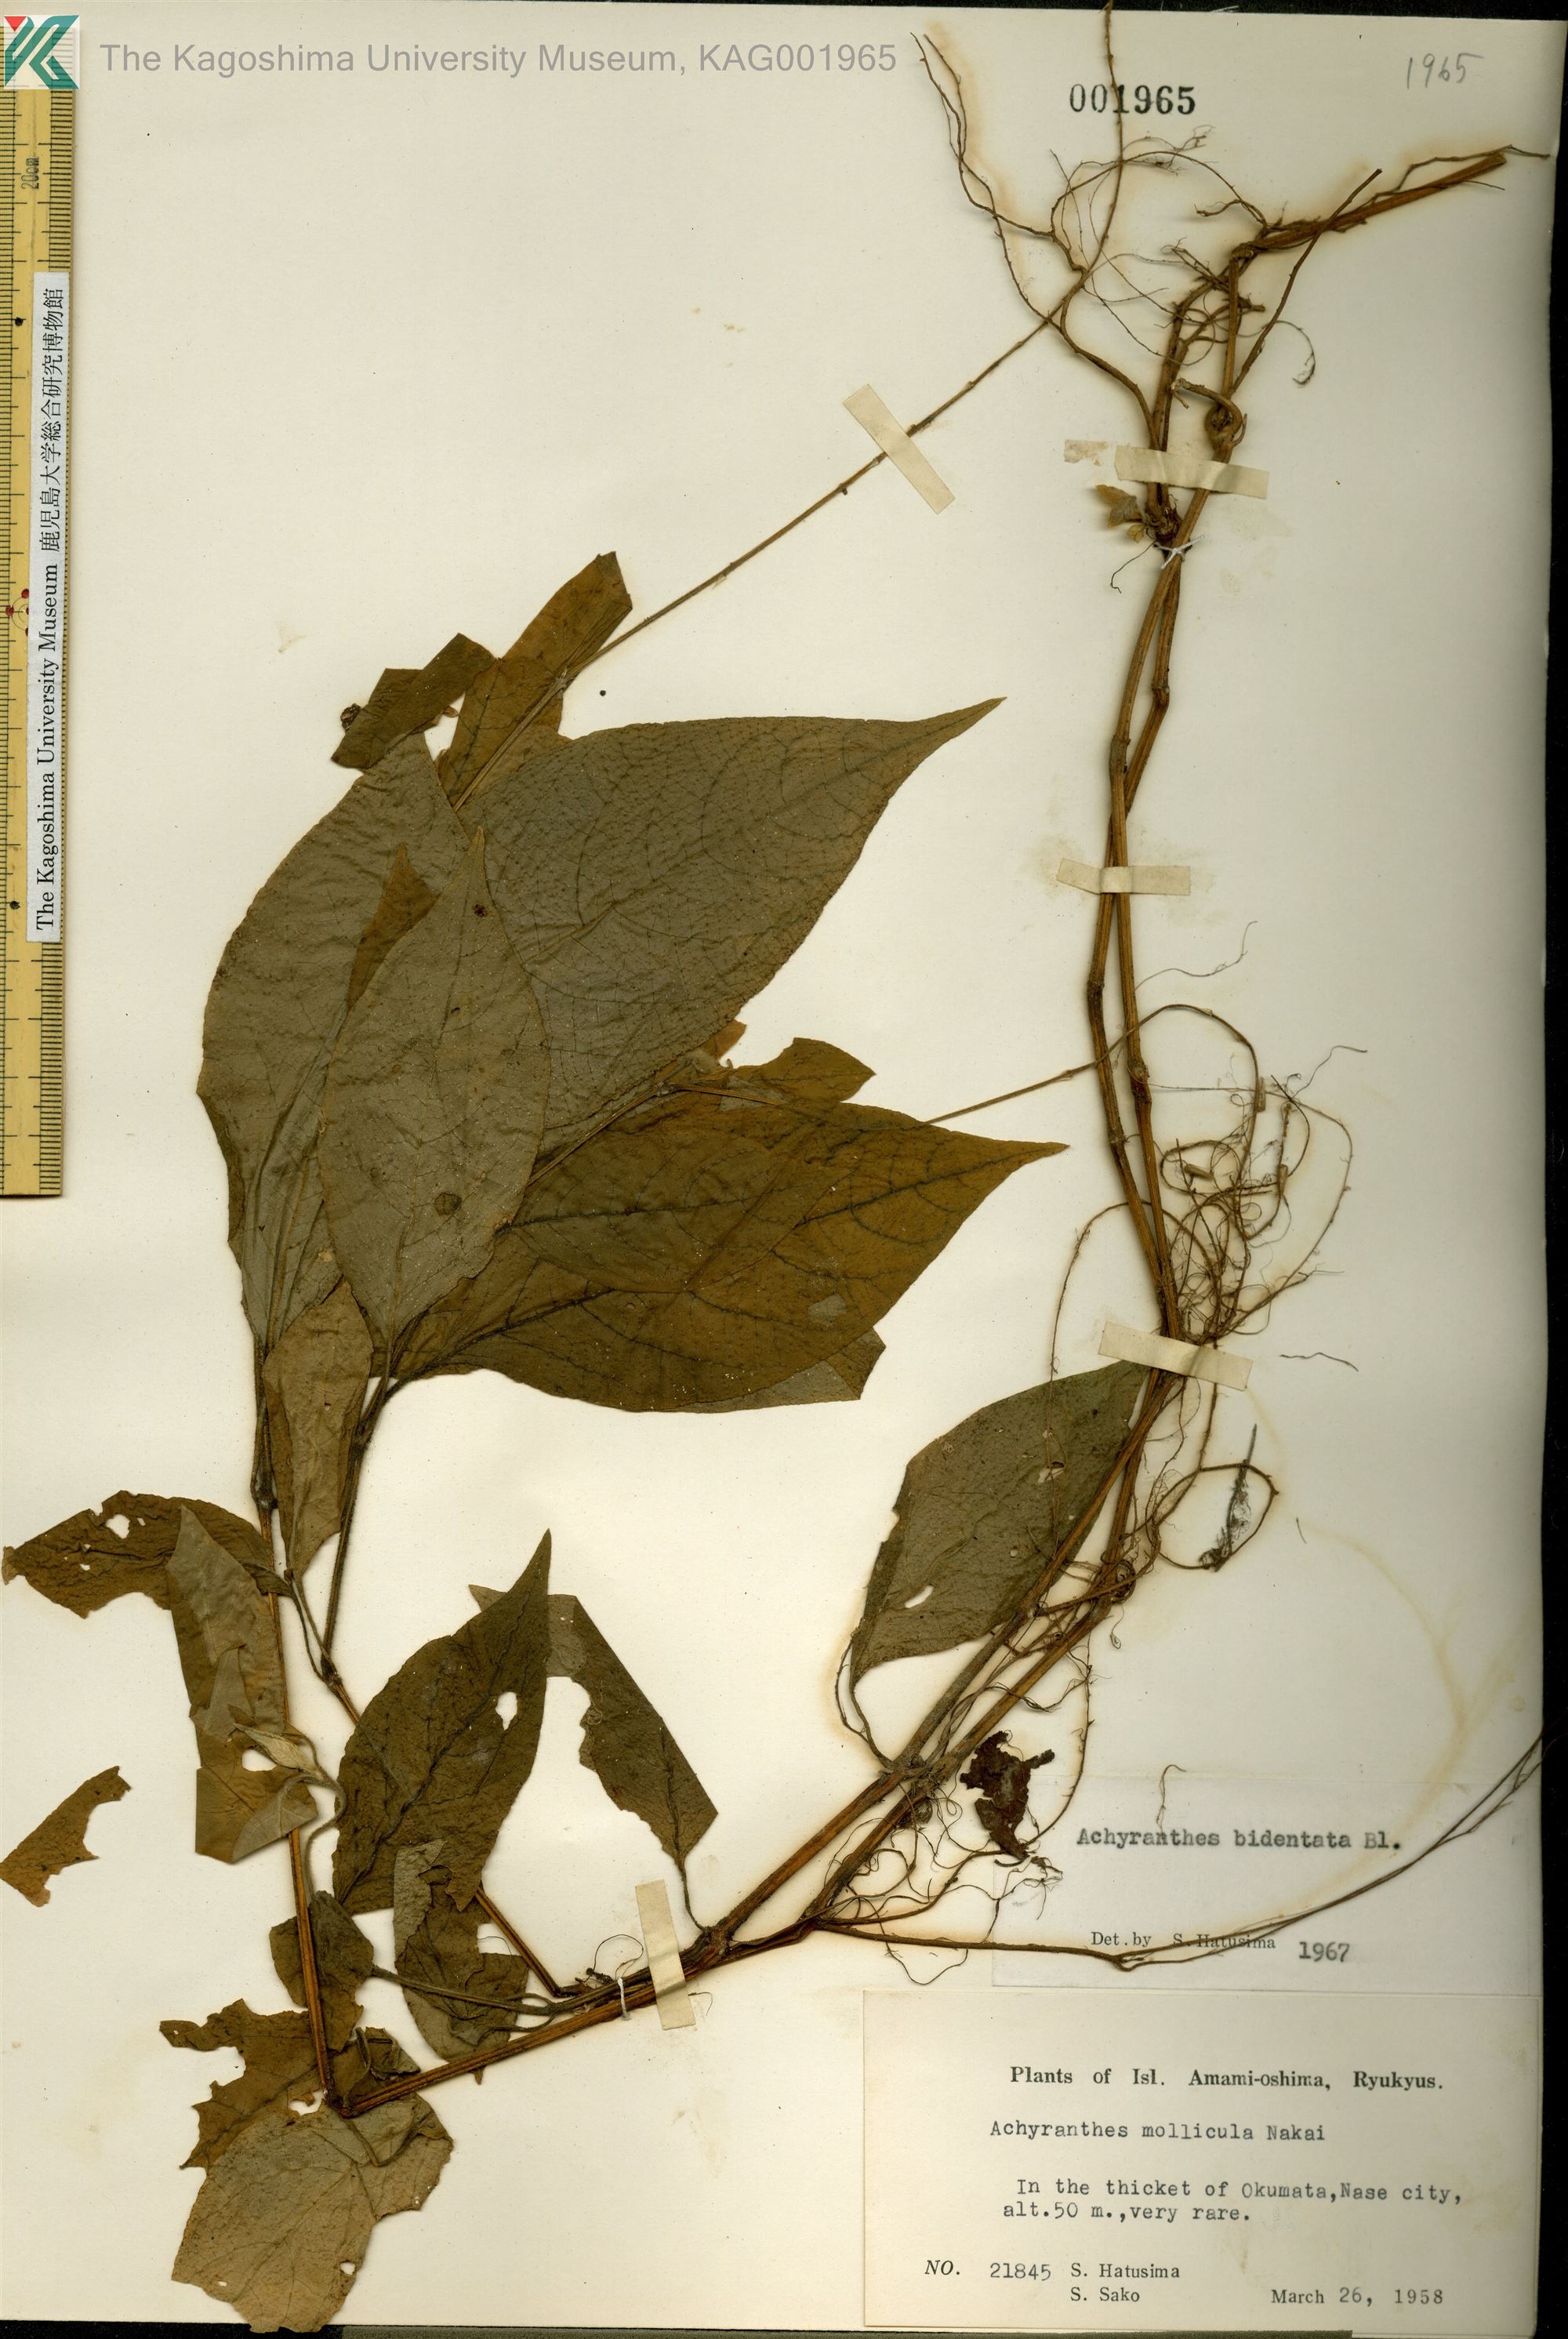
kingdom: Plantae
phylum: Tracheophyta
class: Magnoliopsida
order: Caryophyllales
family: Amaranthaceae
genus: Achyranthes
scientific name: Achyranthes bidentata
